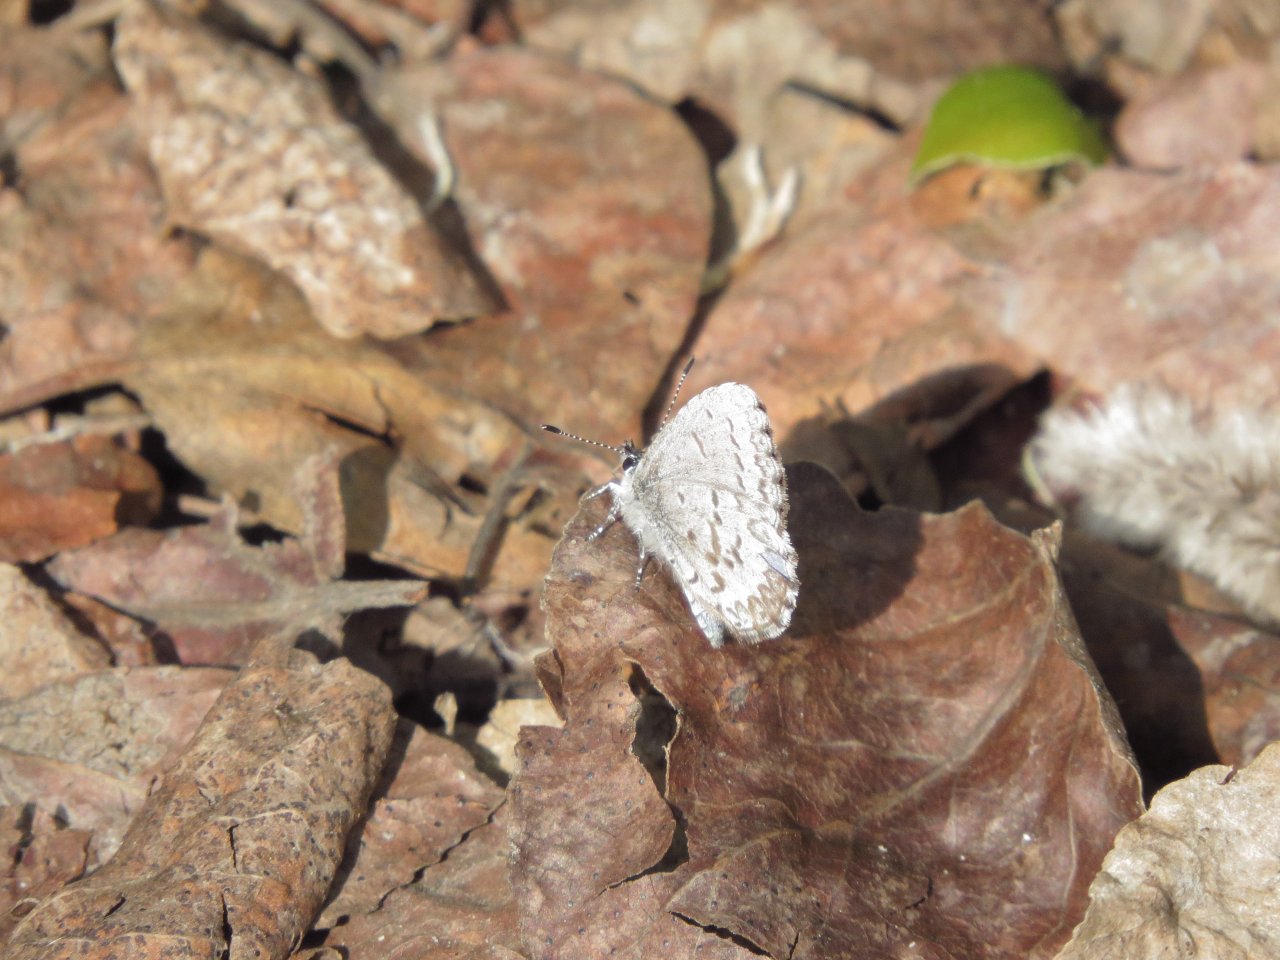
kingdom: Animalia
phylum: Arthropoda
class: Insecta
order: Lepidoptera
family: Lycaenidae
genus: Celastrina
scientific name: Celastrina lucia
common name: Northern Spring Azure
